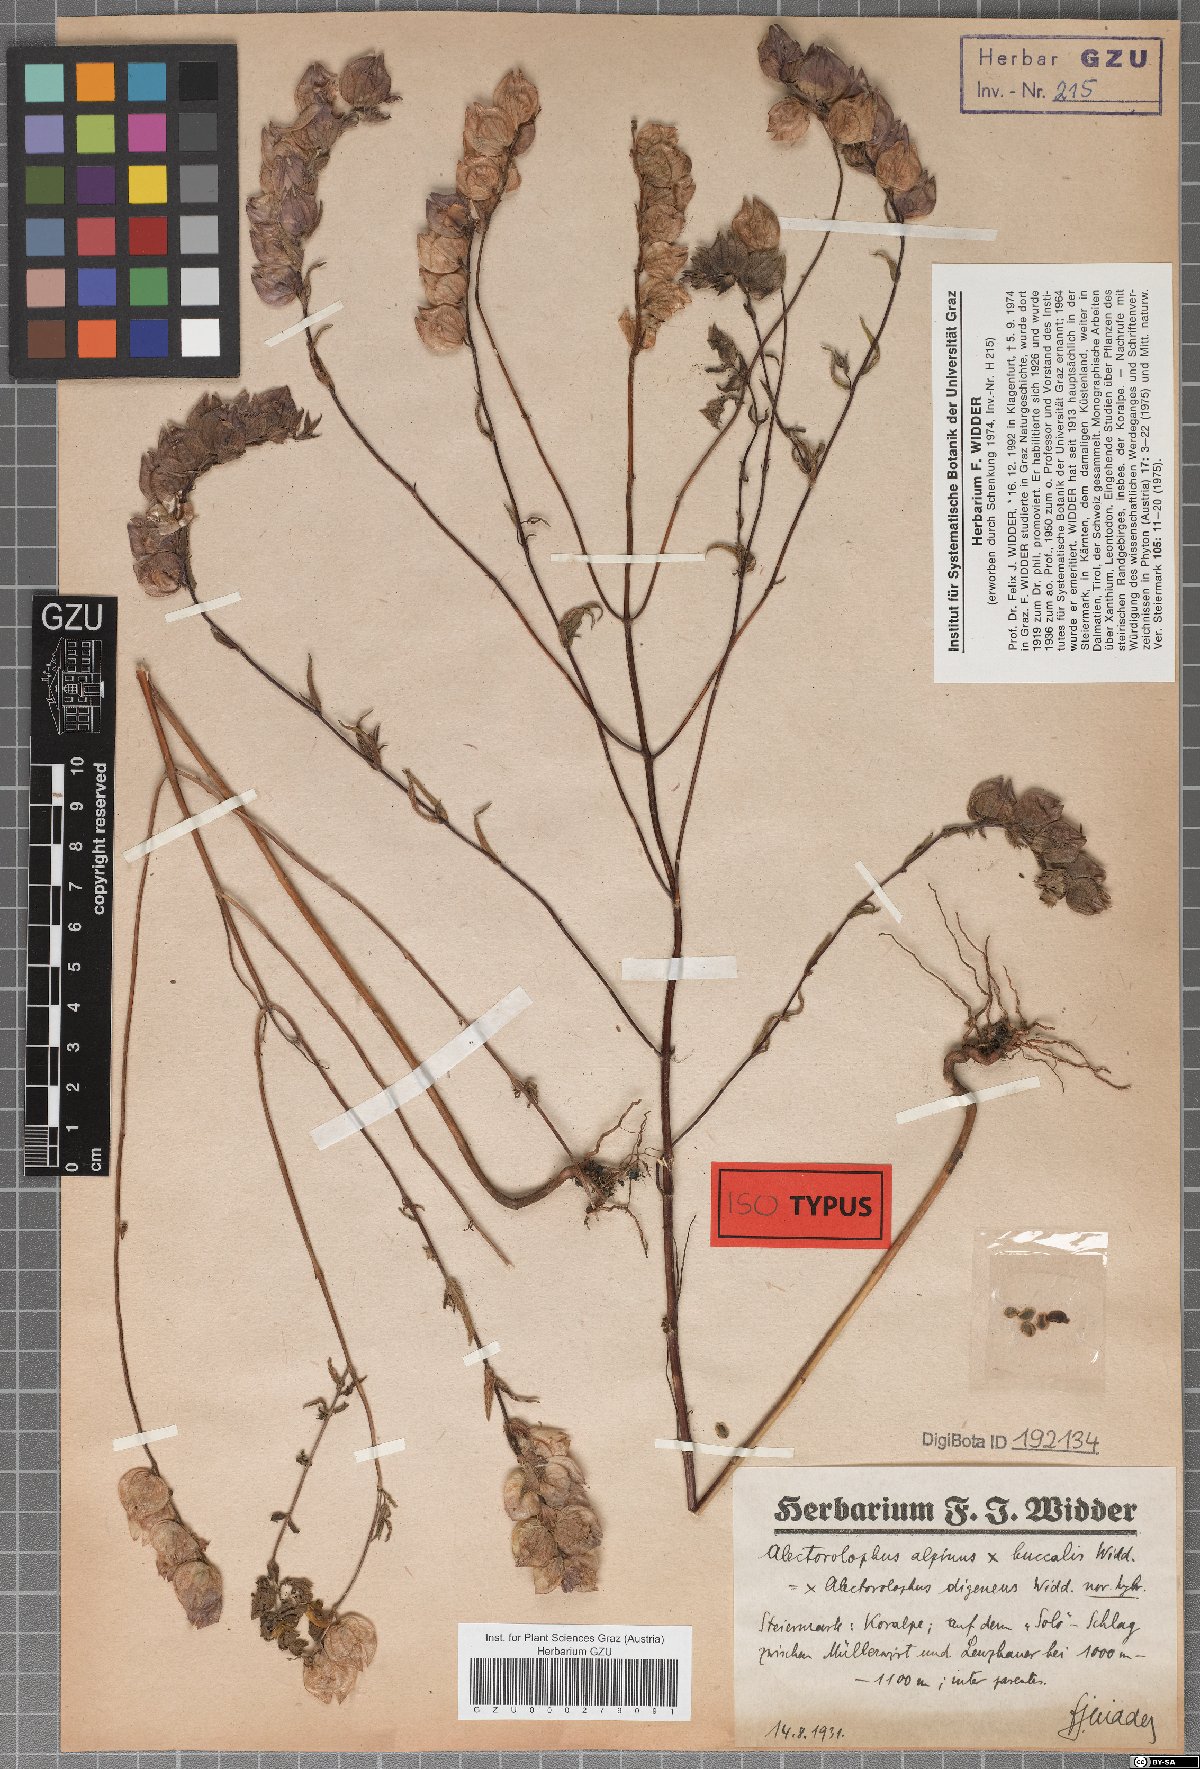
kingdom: Plantae
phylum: Tracheophyta
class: Magnoliopsida
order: Lamiales
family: Scrophulariaceae
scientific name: Scrophulariaceae
